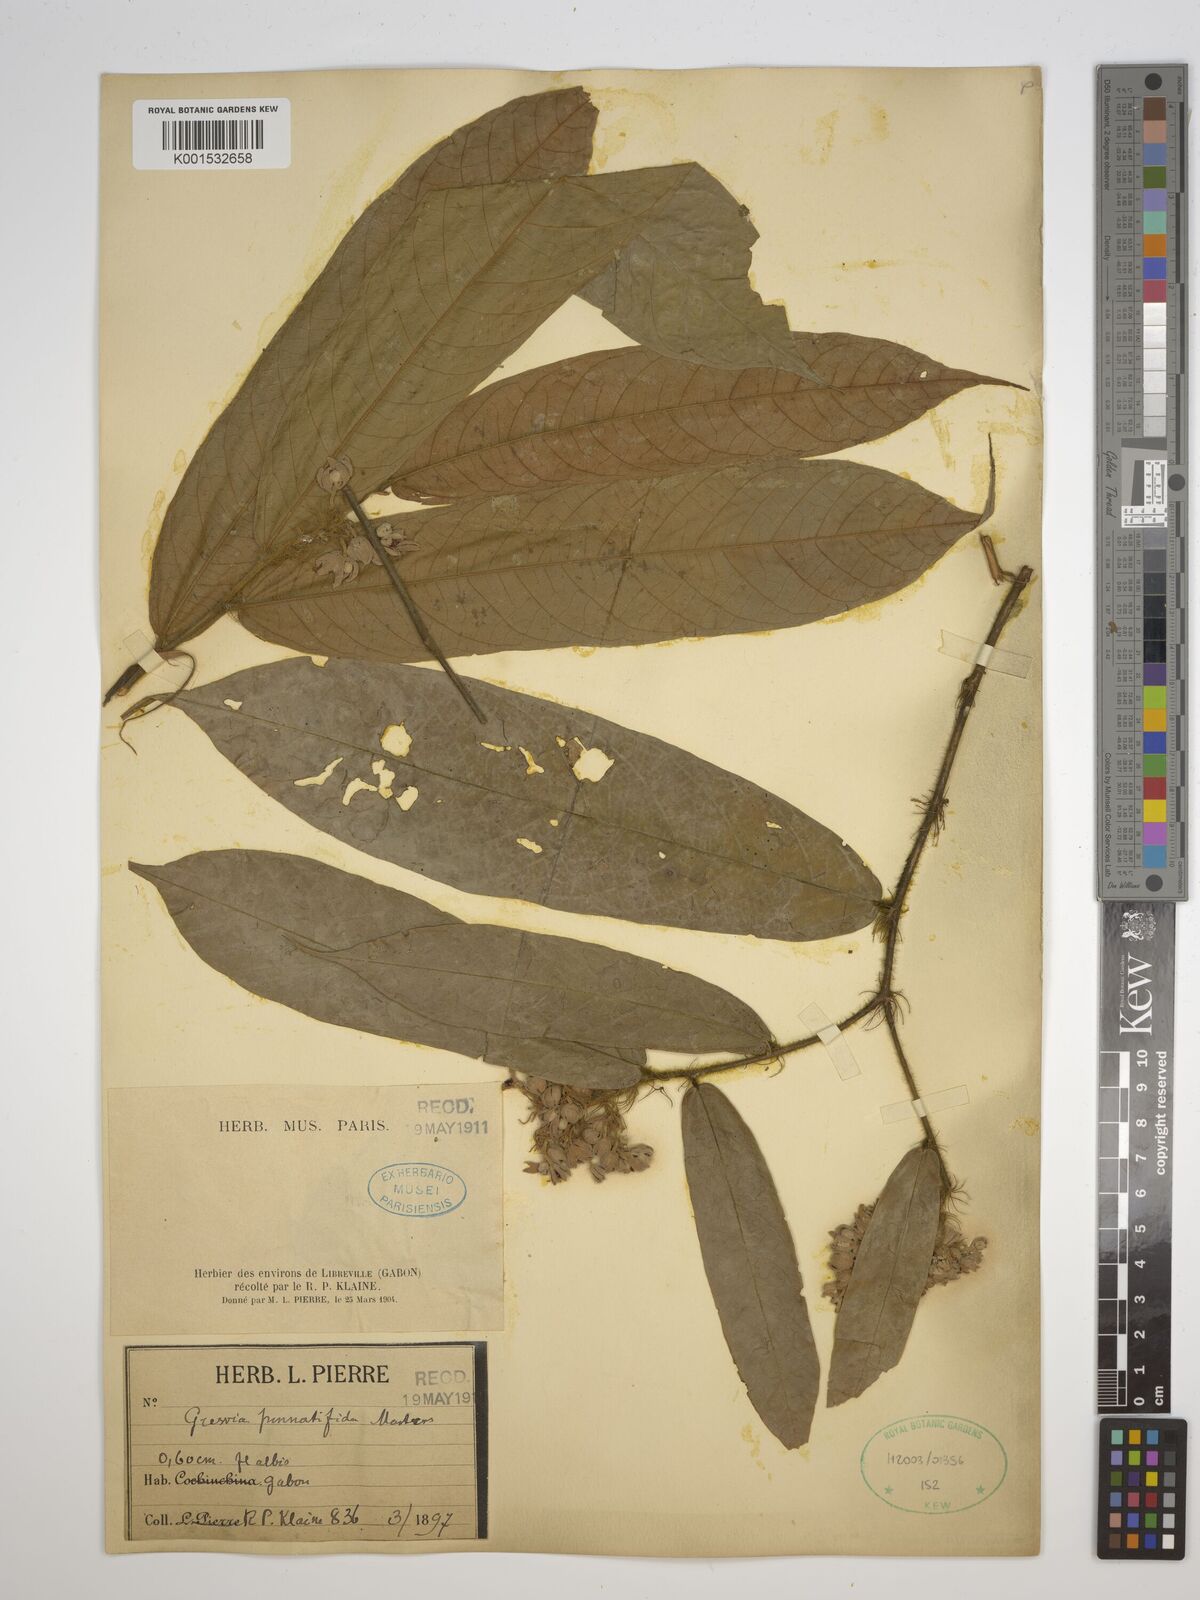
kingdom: Plantae
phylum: Tracheophyta
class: Magnoliopsida
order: Malvales
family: Malvaceae
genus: Microcos
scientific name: Microcos pinnatifida
